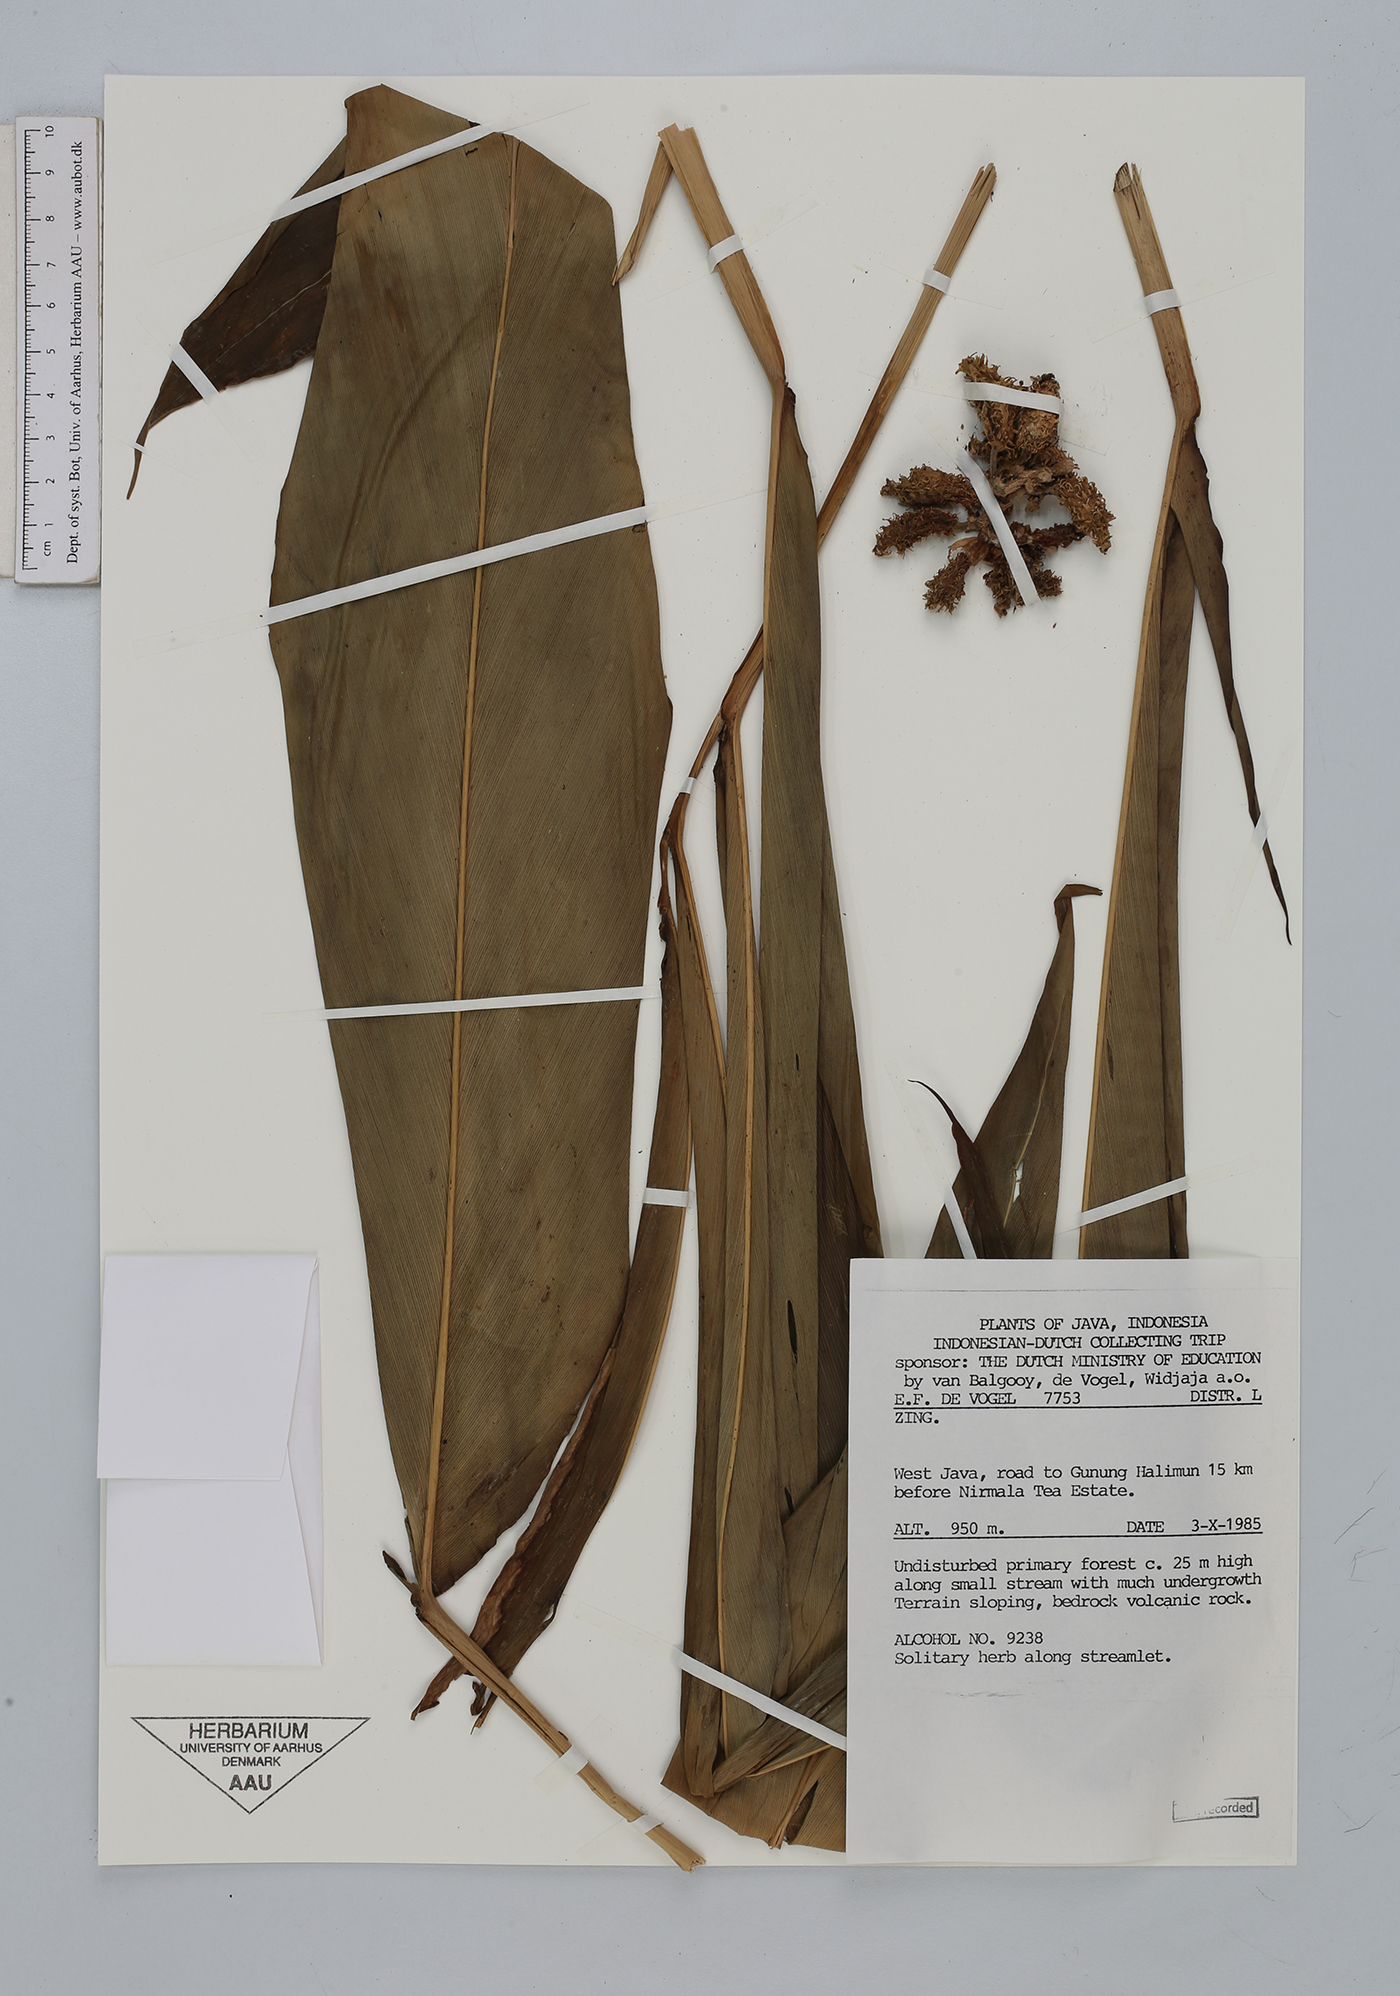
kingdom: Plantae
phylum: Tracheophyta
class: Liliopsida
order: Zingiberales
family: Zingiberaceae
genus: Amomum
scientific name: Amomum
